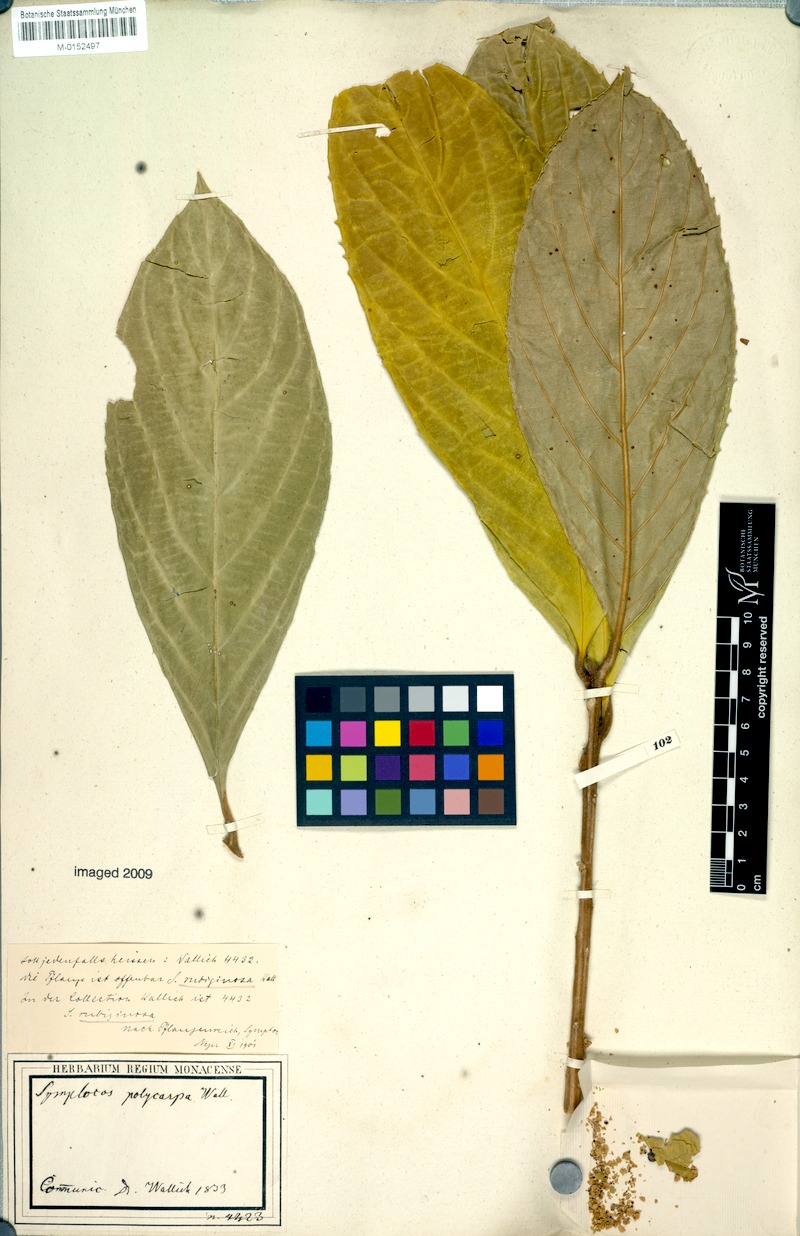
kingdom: Plantae
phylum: Tracheophyta
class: Magnoliopsida
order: Ericales
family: Symplocaceae
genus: Symplocos
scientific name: Symplocos rubiginosa
